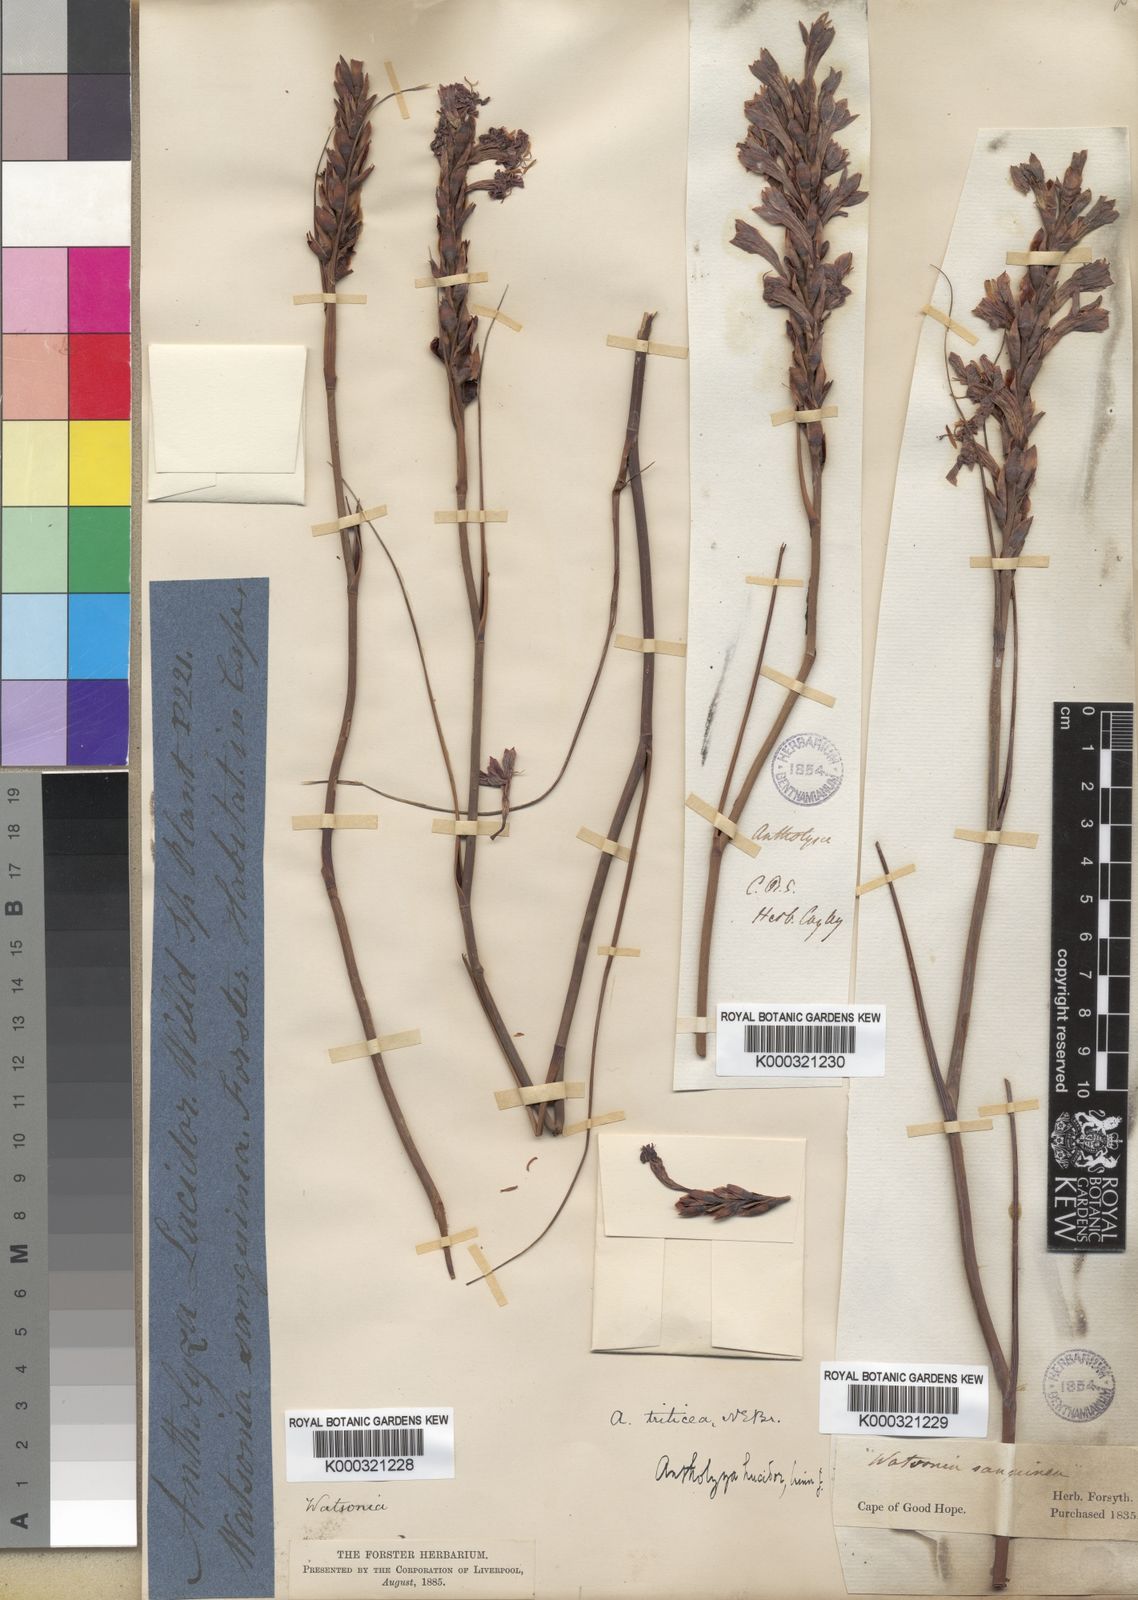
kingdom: Plantae
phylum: Tracheophyta
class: Liliopsida
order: Asparagales
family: Iridaceae
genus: Tritoniopsis
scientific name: Tritoniopsis triticea
